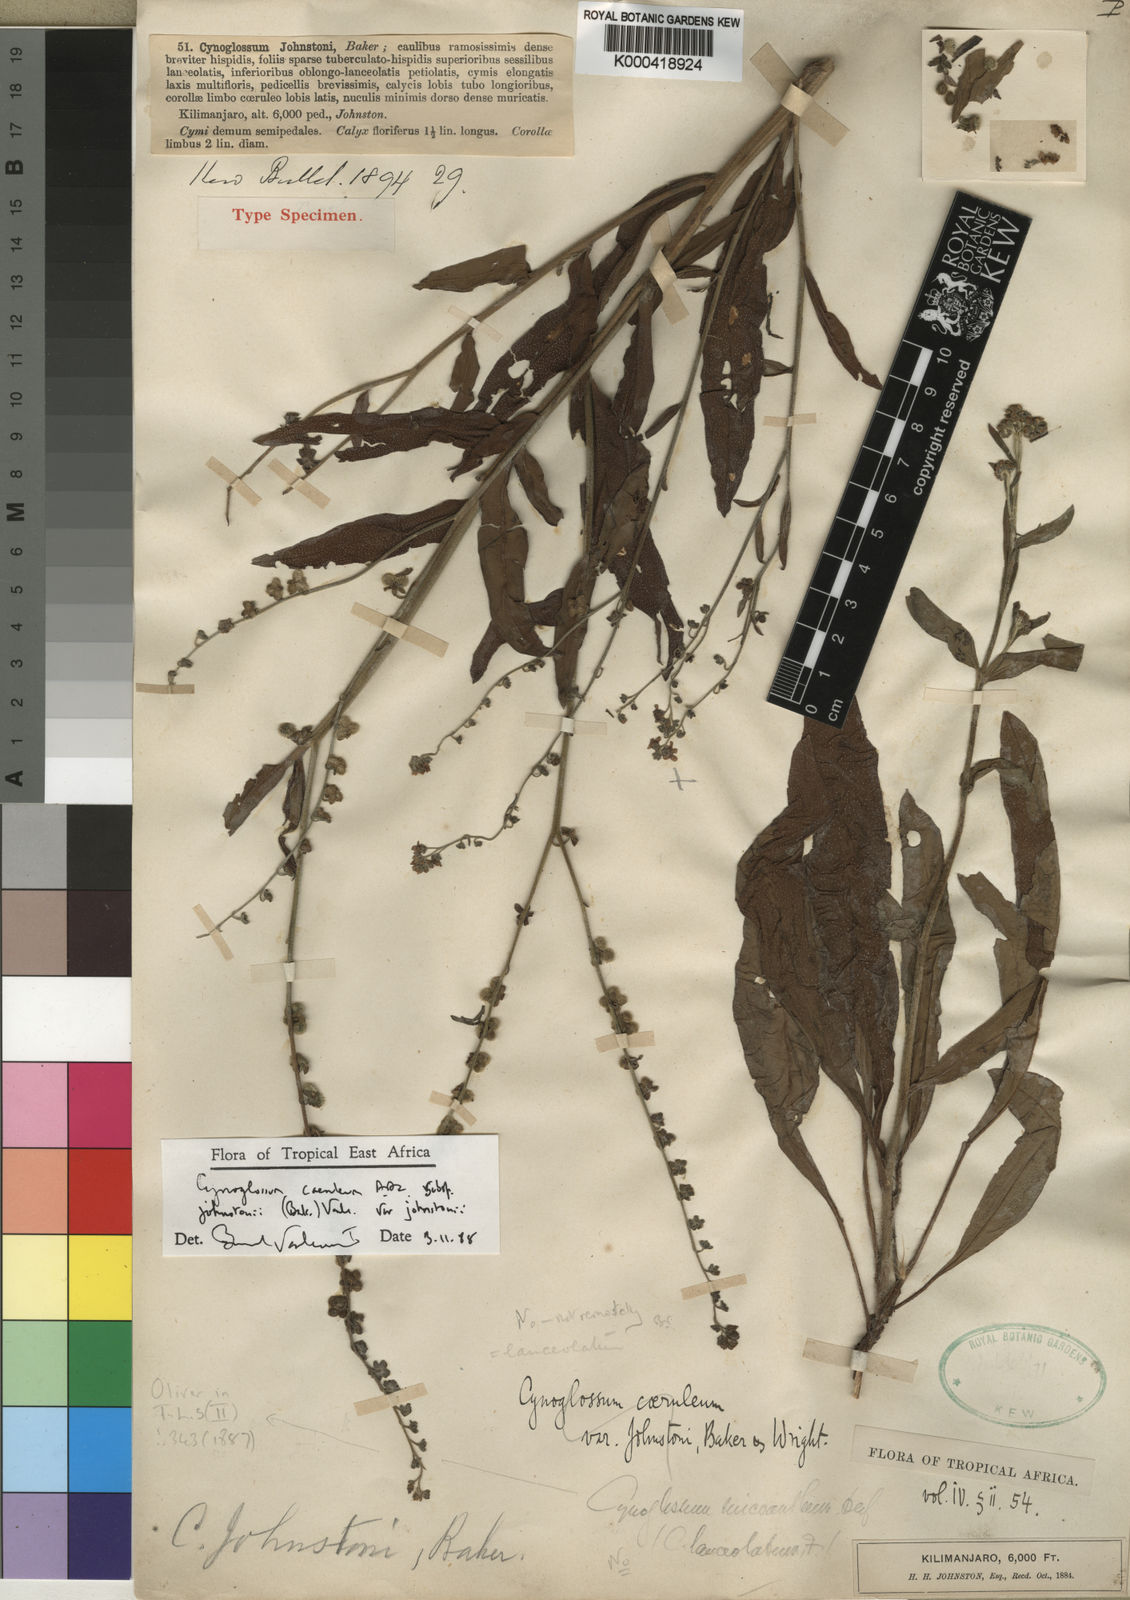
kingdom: Plantae
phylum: Tracheophyta
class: Magnoliopsida
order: Boraginales
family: Boraginaceae
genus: Paracynoglossum
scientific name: Paracynoglossum afrocaeruleum
